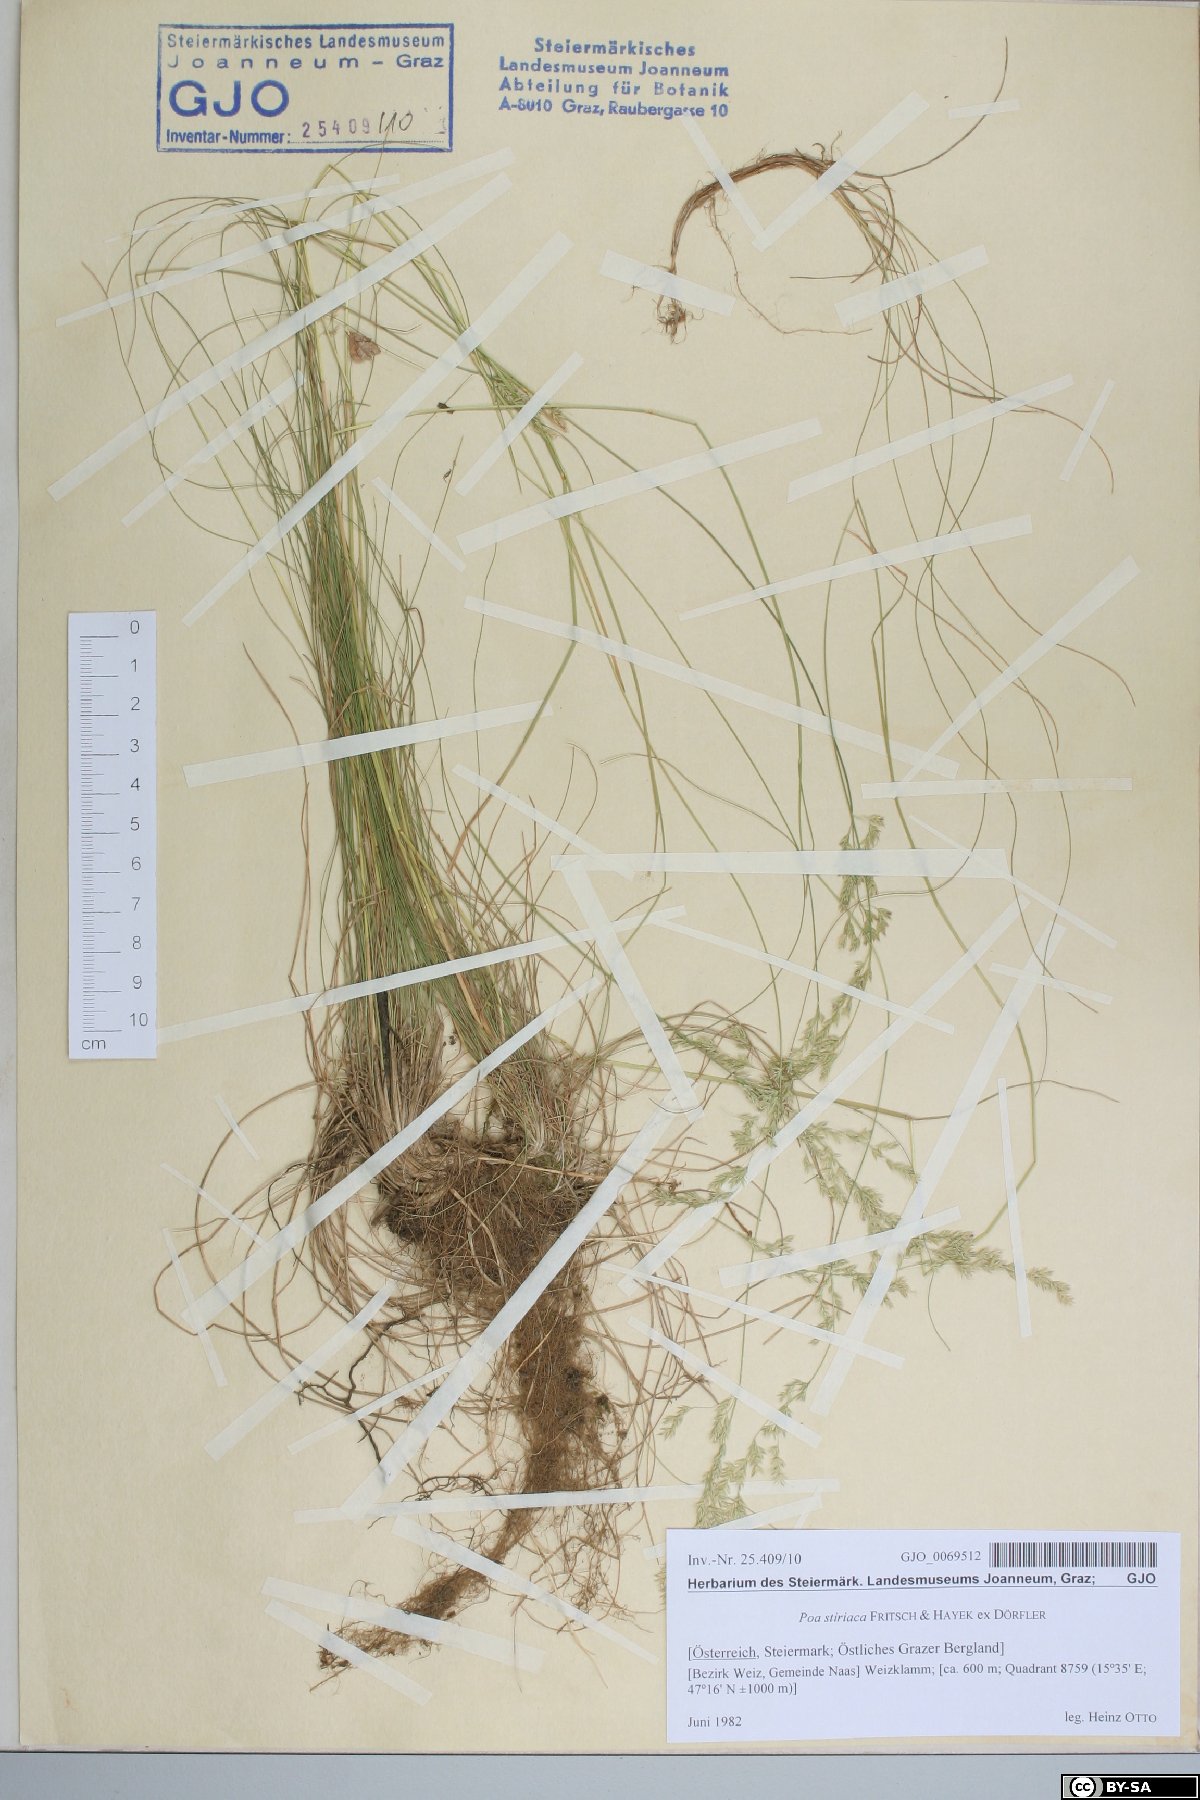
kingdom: Plantae
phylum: Tracheophyta
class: Liliopsida
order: Poales
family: Poaceae
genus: Poa
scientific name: Poa stiriaca
